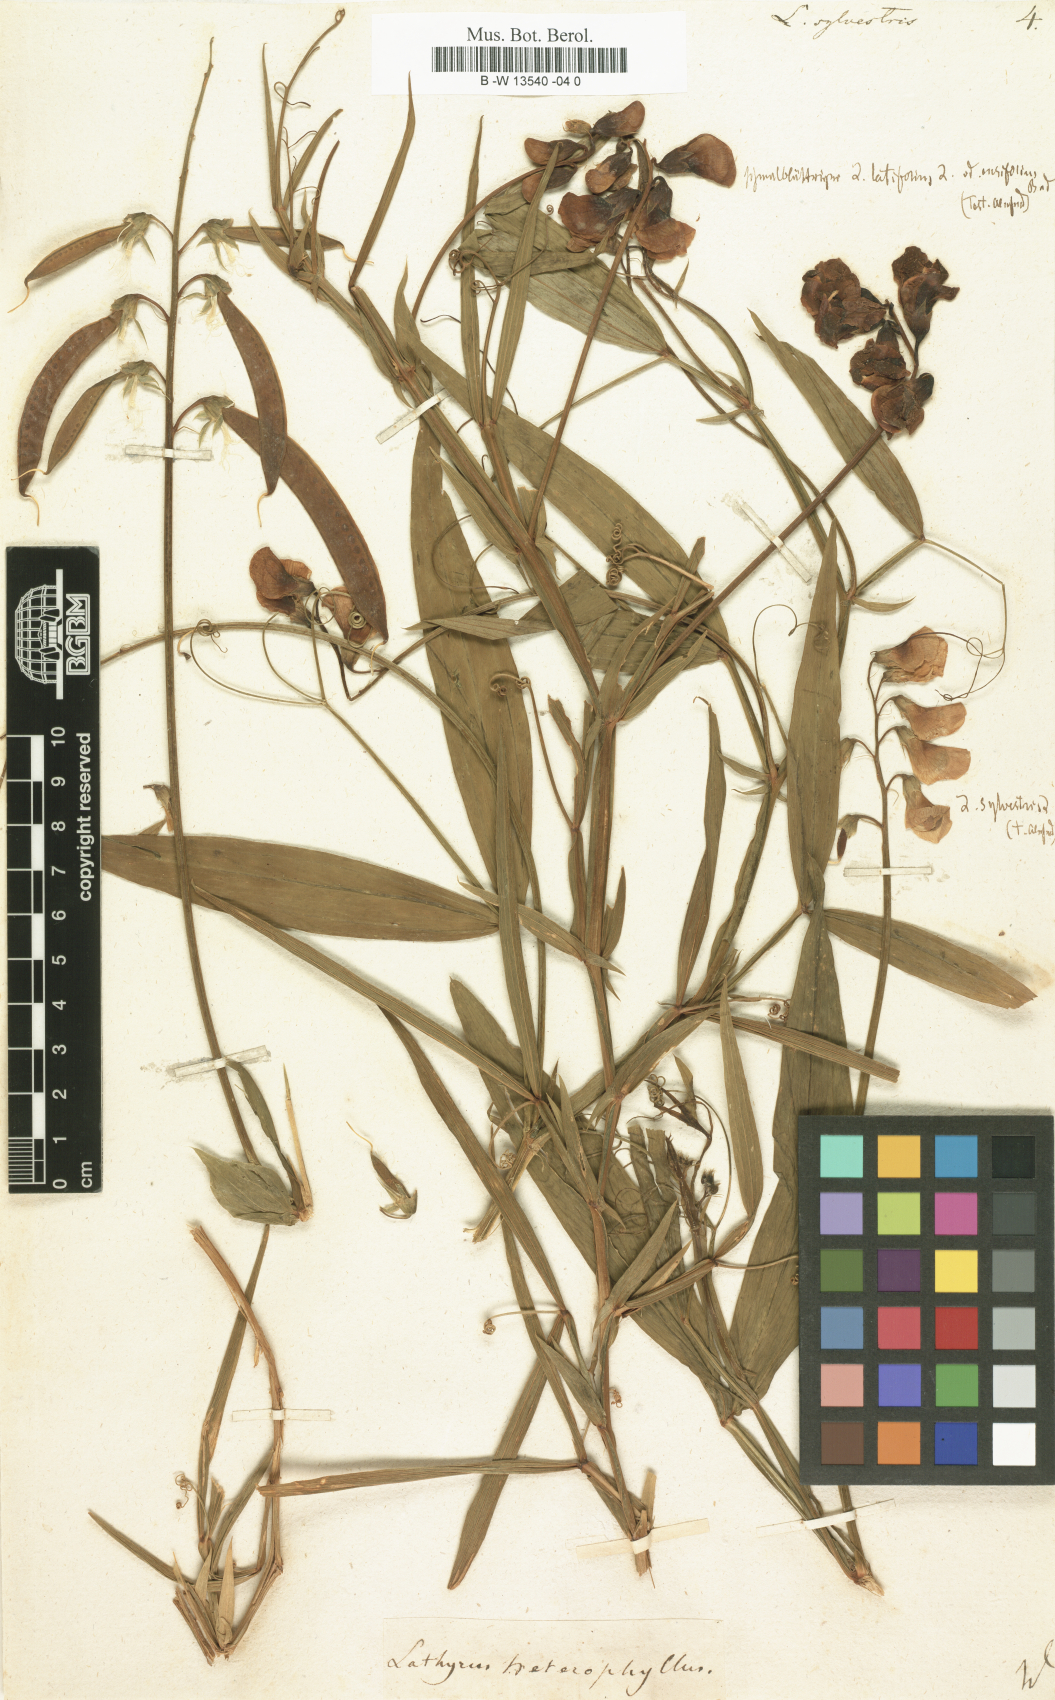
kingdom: Plantae
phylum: Tracheophyta
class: Magnoliopsida
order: Fabales
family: Fabaceae
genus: Lathyrus
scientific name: Lathyrus sylvestris
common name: Flat pea
